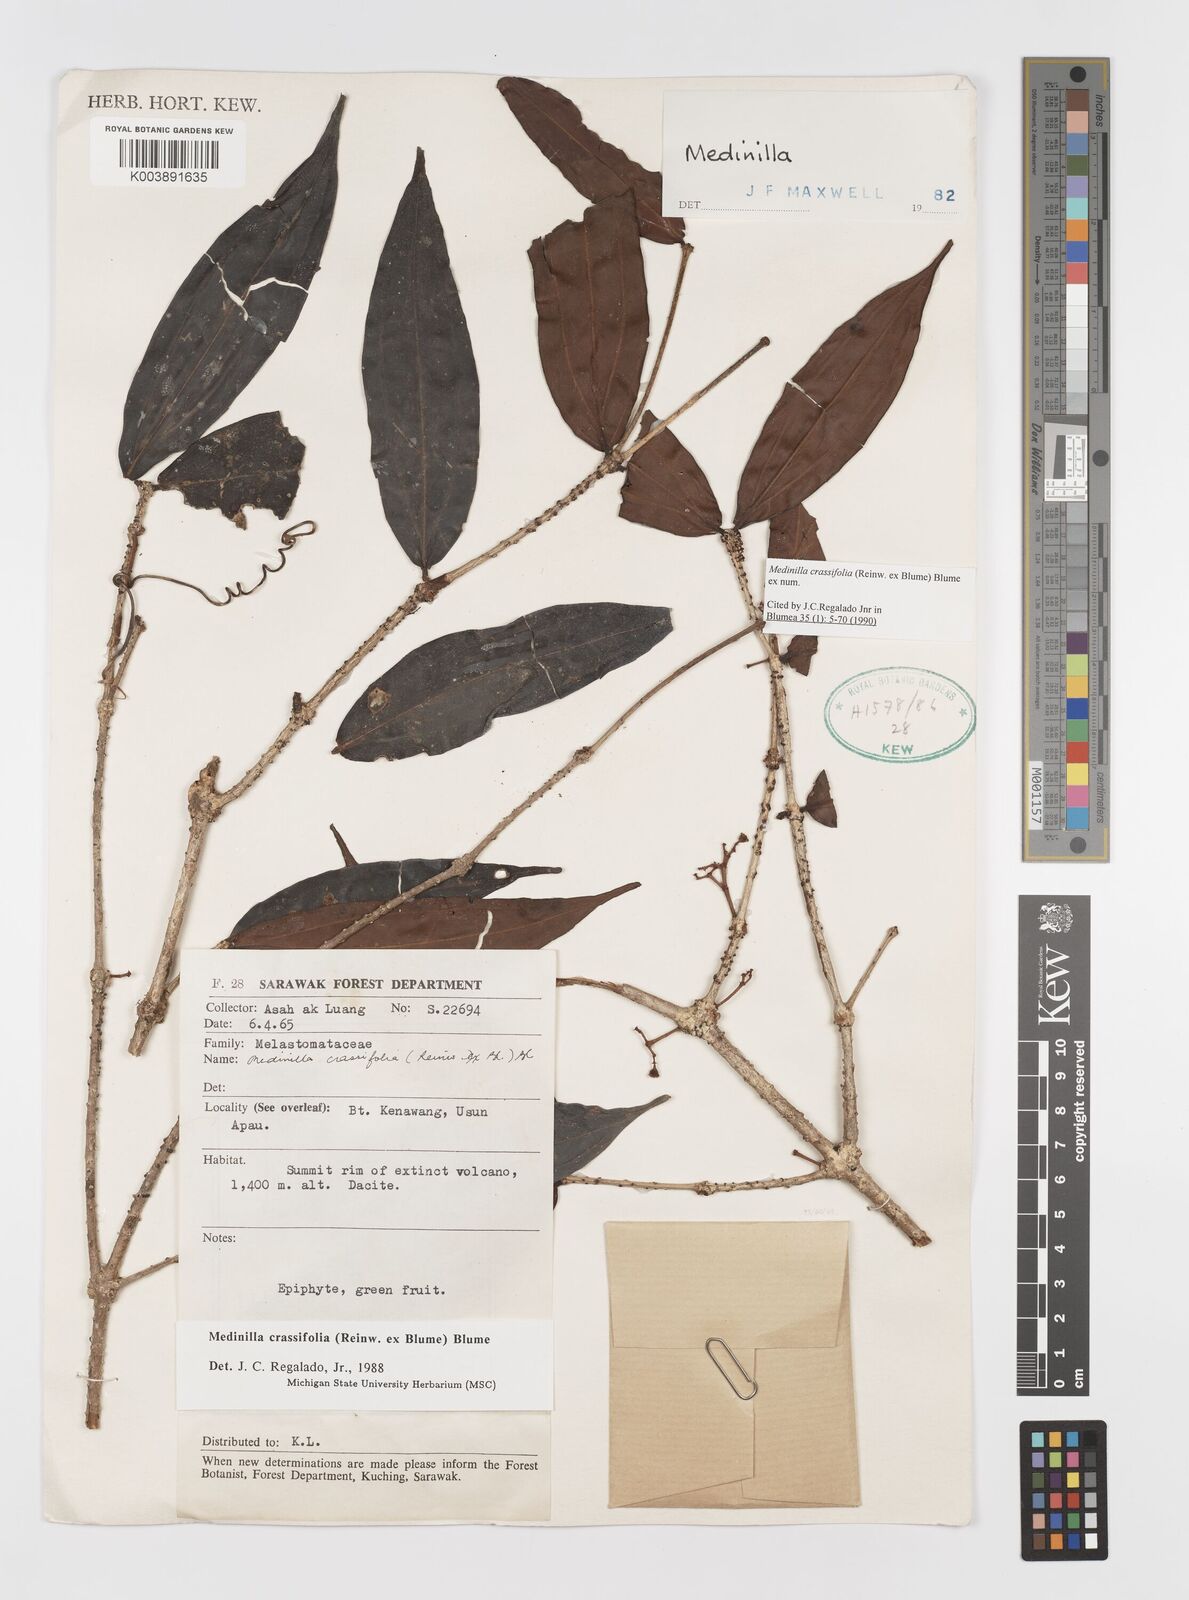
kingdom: Plantae
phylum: Tracheophyta
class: Magnoliopsida
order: Myrtales
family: Melastomataceae
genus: Medinilla
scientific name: Medinilla crassifolia
